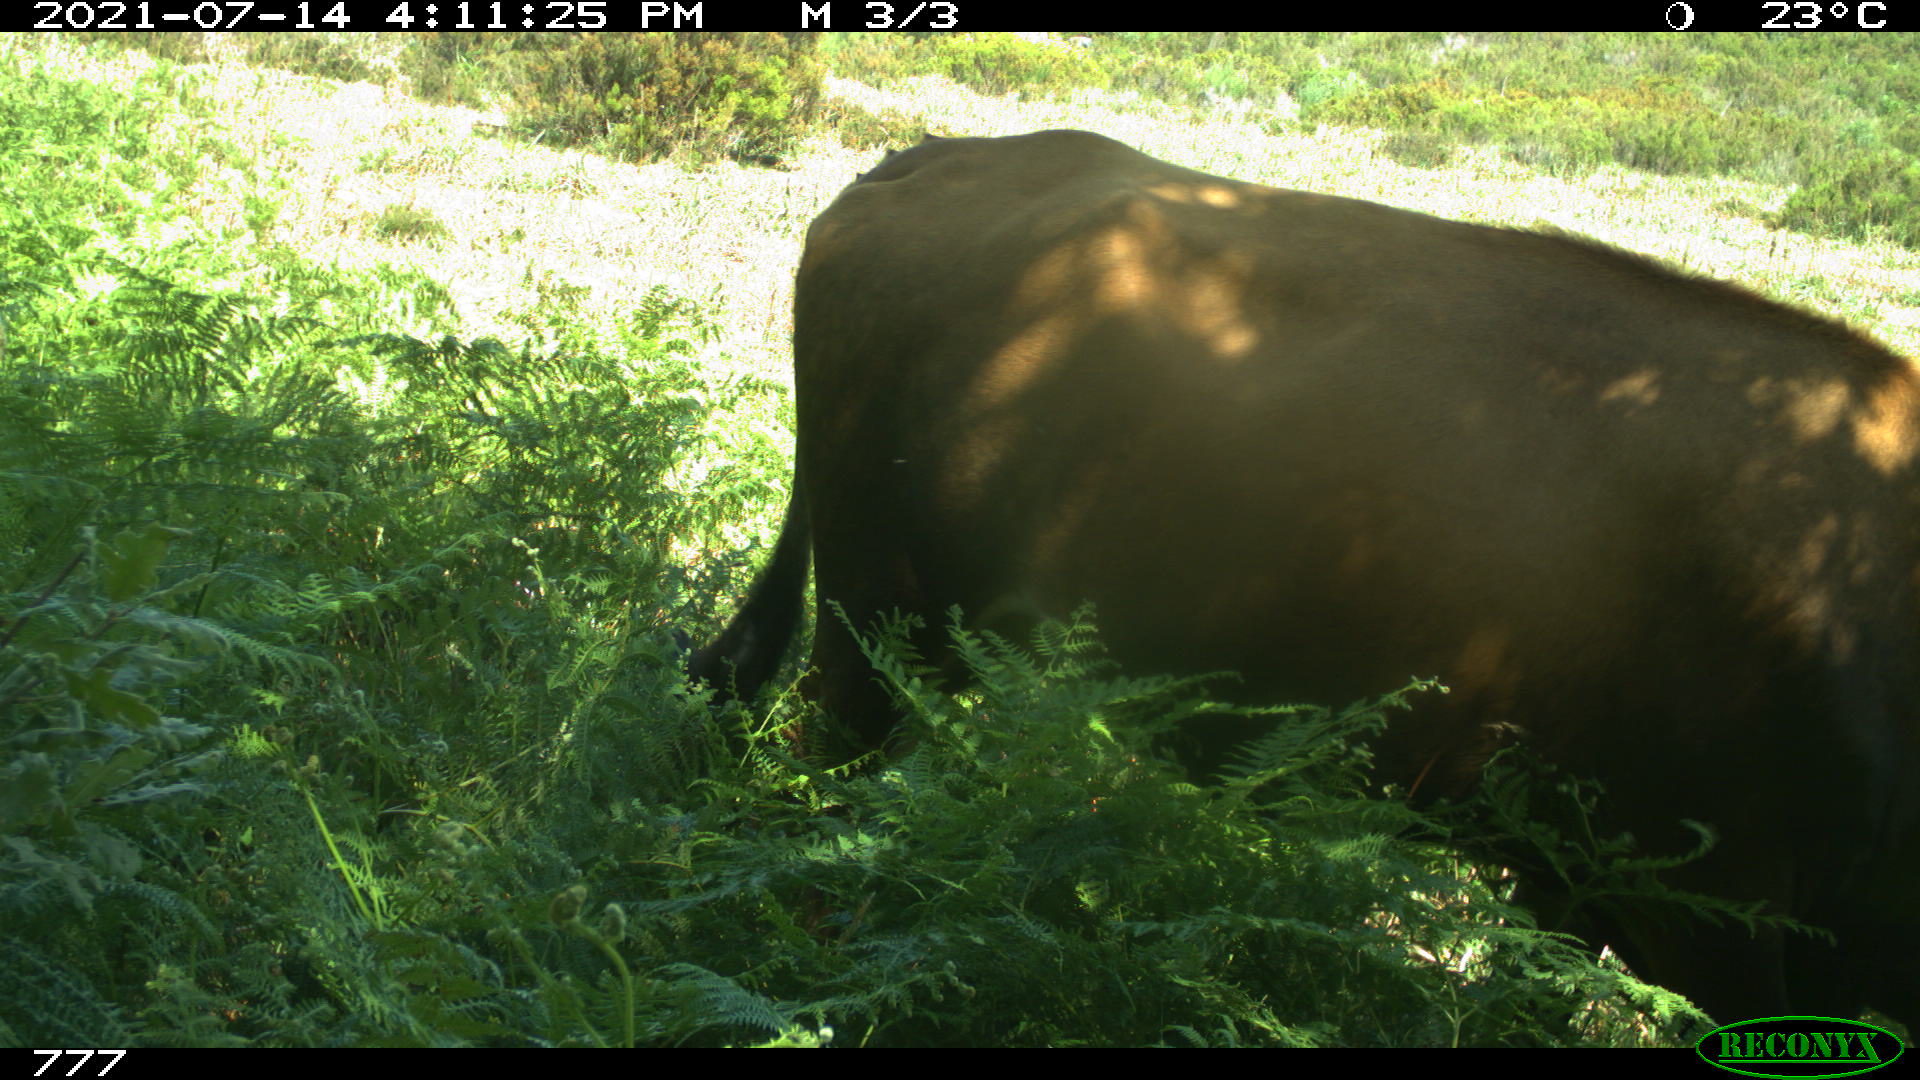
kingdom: Animalia
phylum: Chordata
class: Mammalia
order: Artiodactyla
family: Bovidae
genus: Bos
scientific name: Bos taurus
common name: Domesticated cattle
